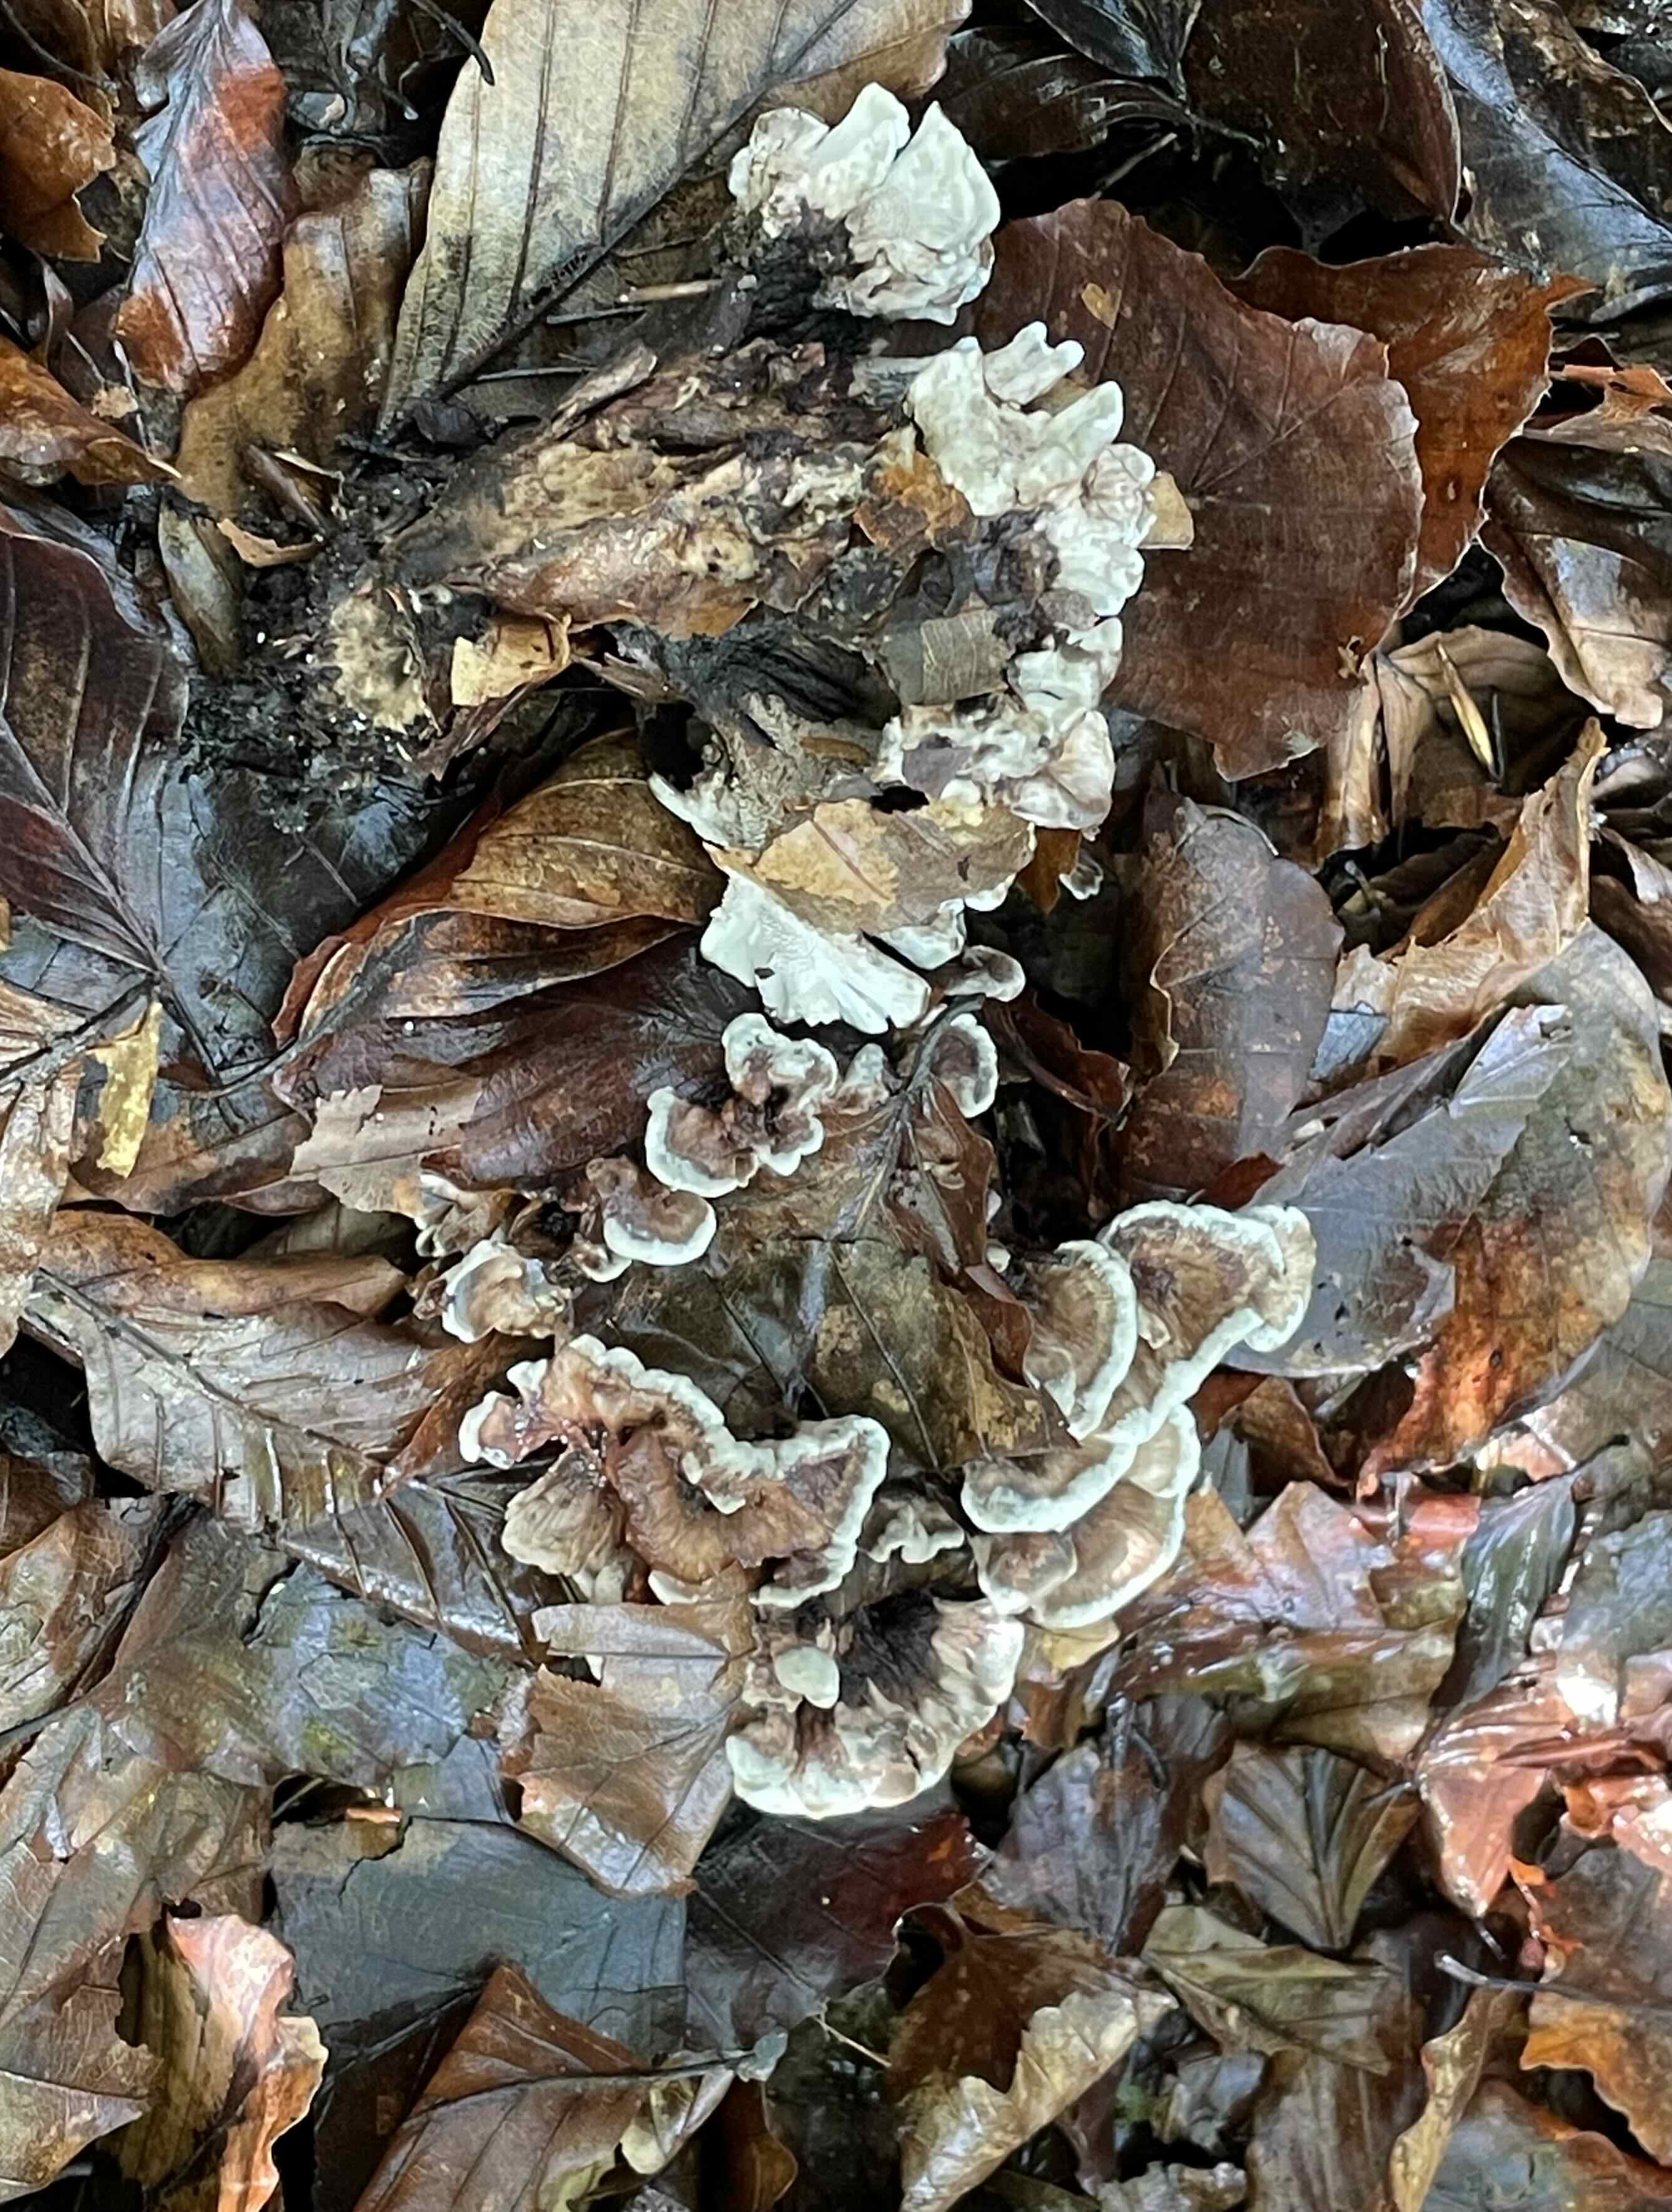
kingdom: Fungi
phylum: Basidiomycota
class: Agaricomycetes
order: Thelephorales
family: Thelephoraceae
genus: Phellodon
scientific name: Phellodon confluens
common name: pjaltet duftpigsvamp
